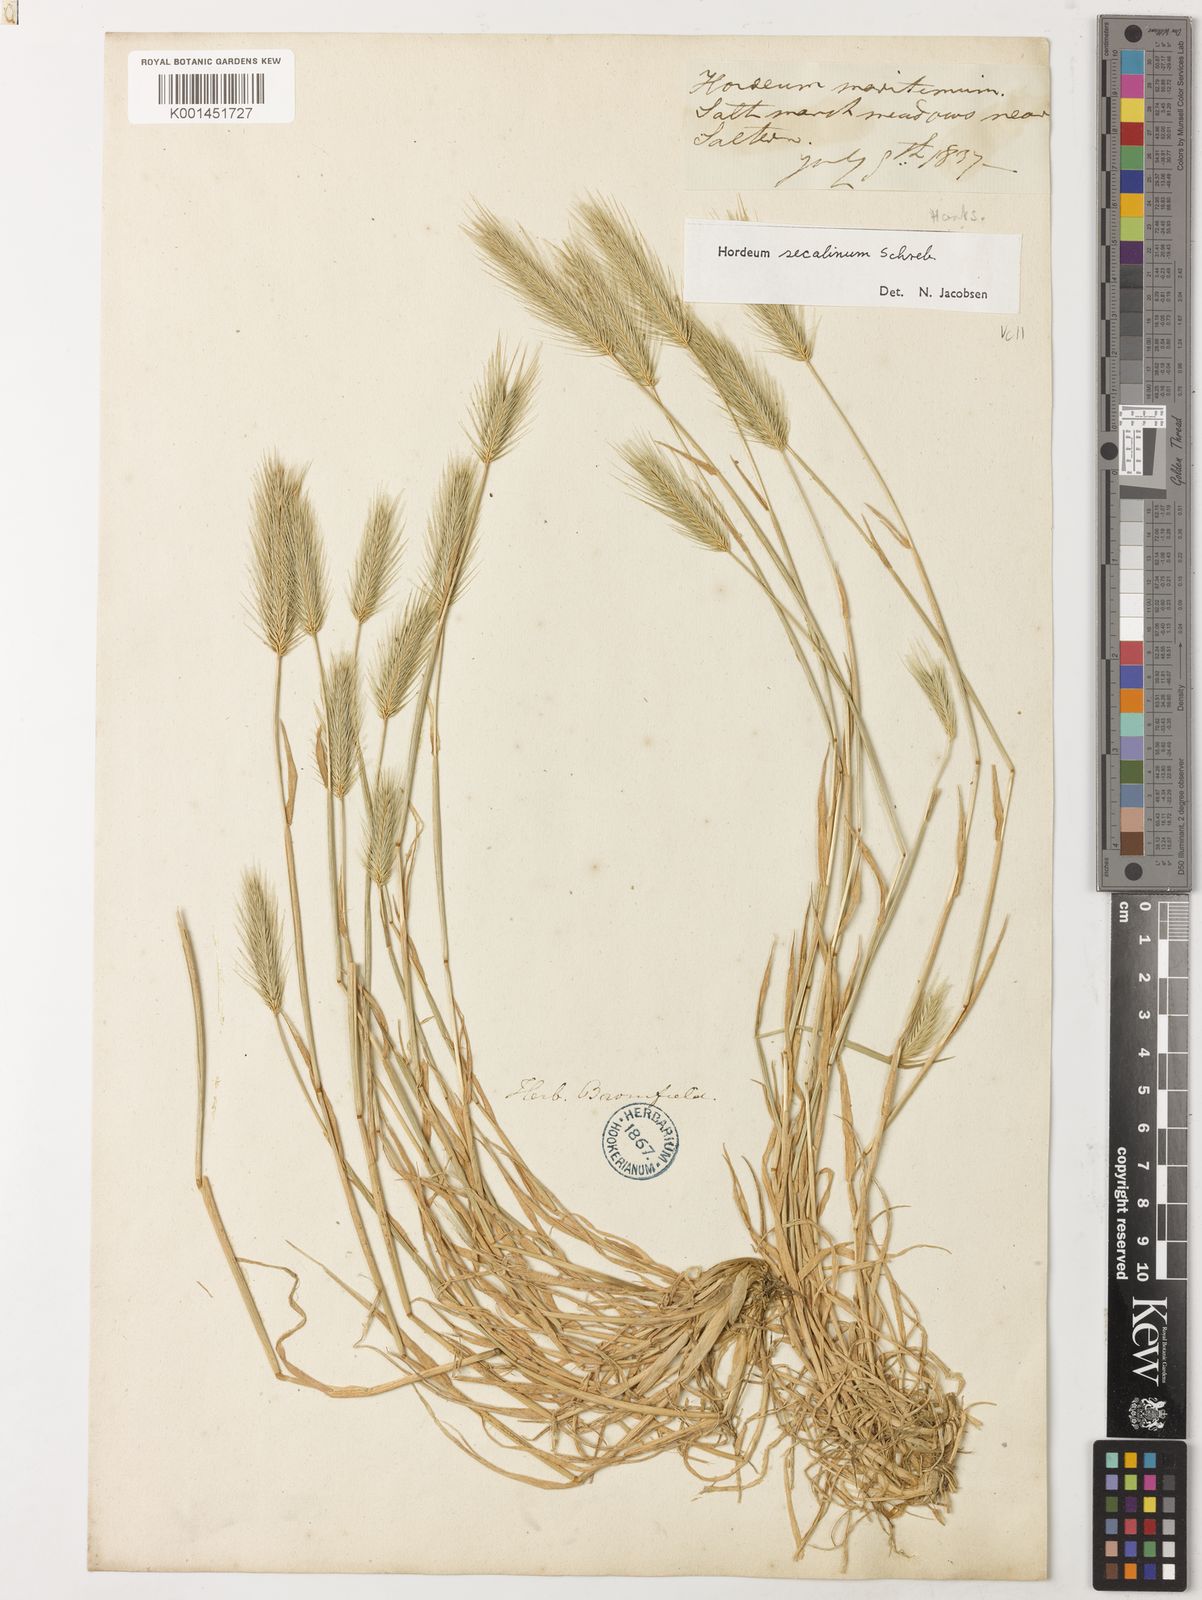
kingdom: Plantae
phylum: Tracheophyta
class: Liliopsida
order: Poales
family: Poaceae
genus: Hordeum
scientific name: Hordeum secalinum
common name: Meadow barley
